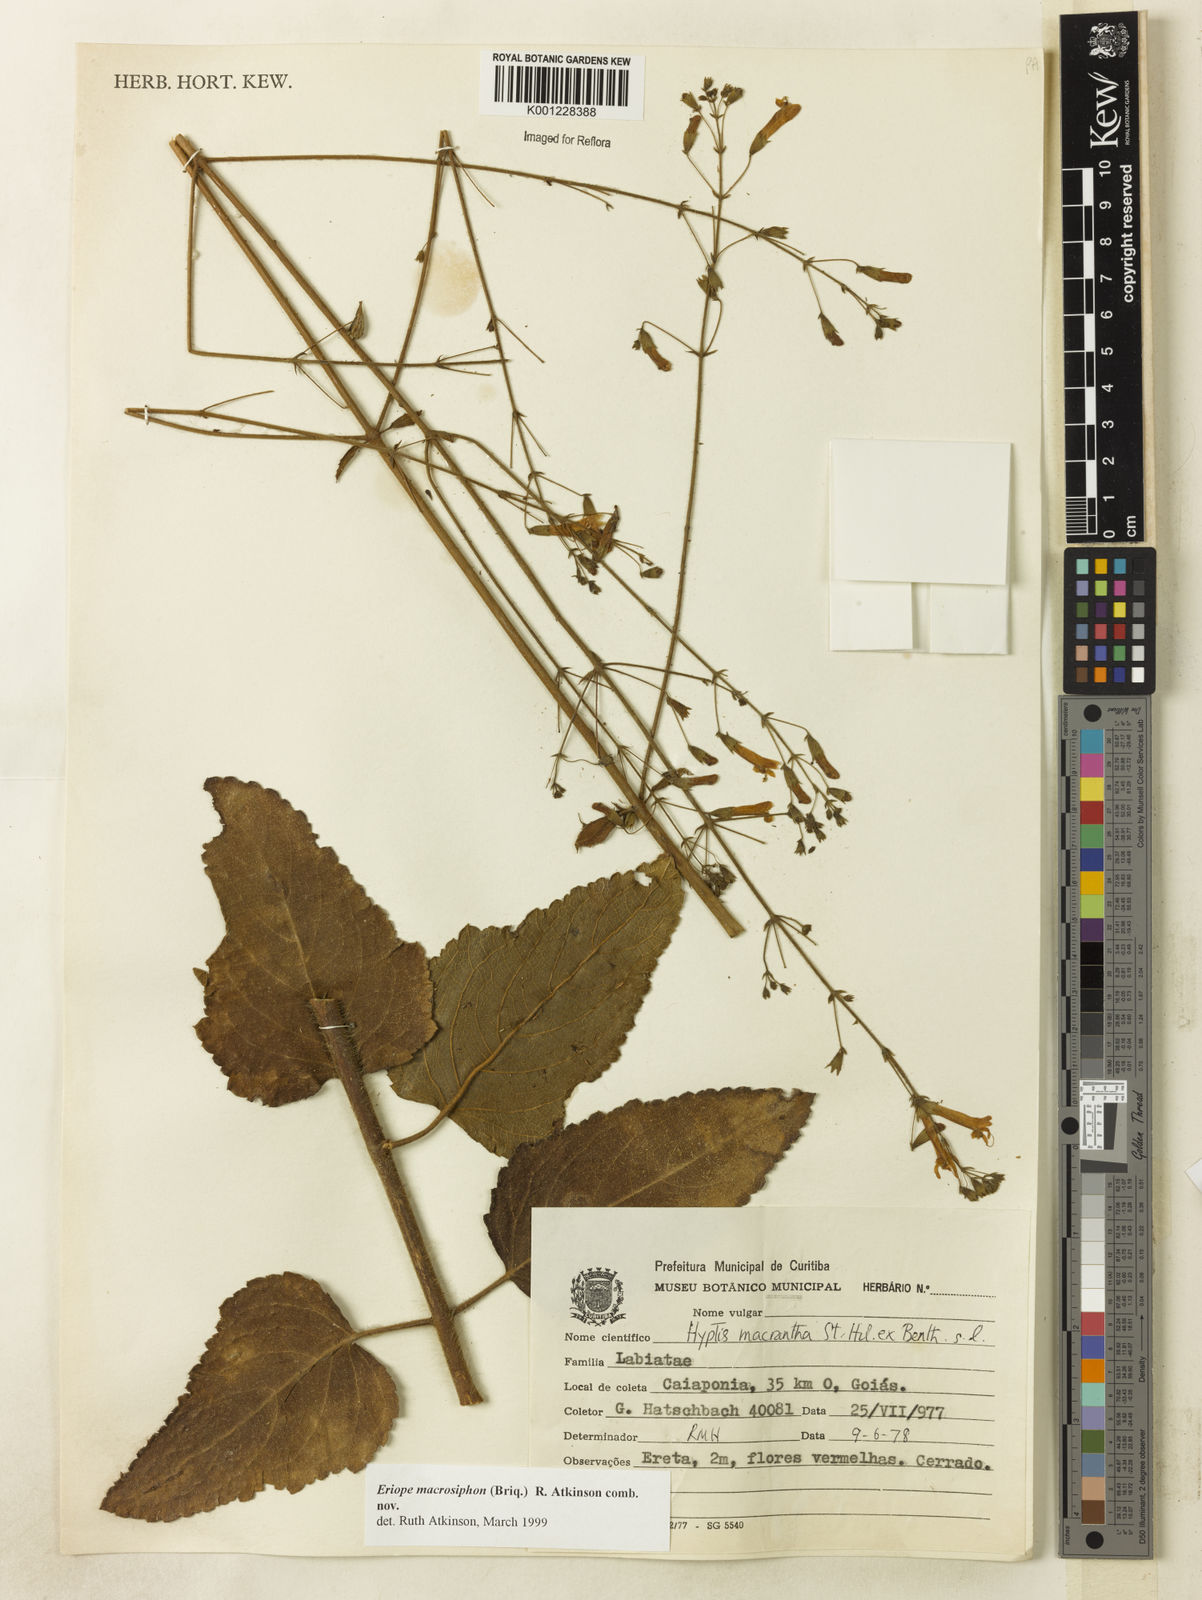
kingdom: Plantae
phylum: Tracheophyta
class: Magnoliopsida
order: Lamiales
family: Lamiaceae
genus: Hypenia
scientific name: Hypenia macrosiphon
